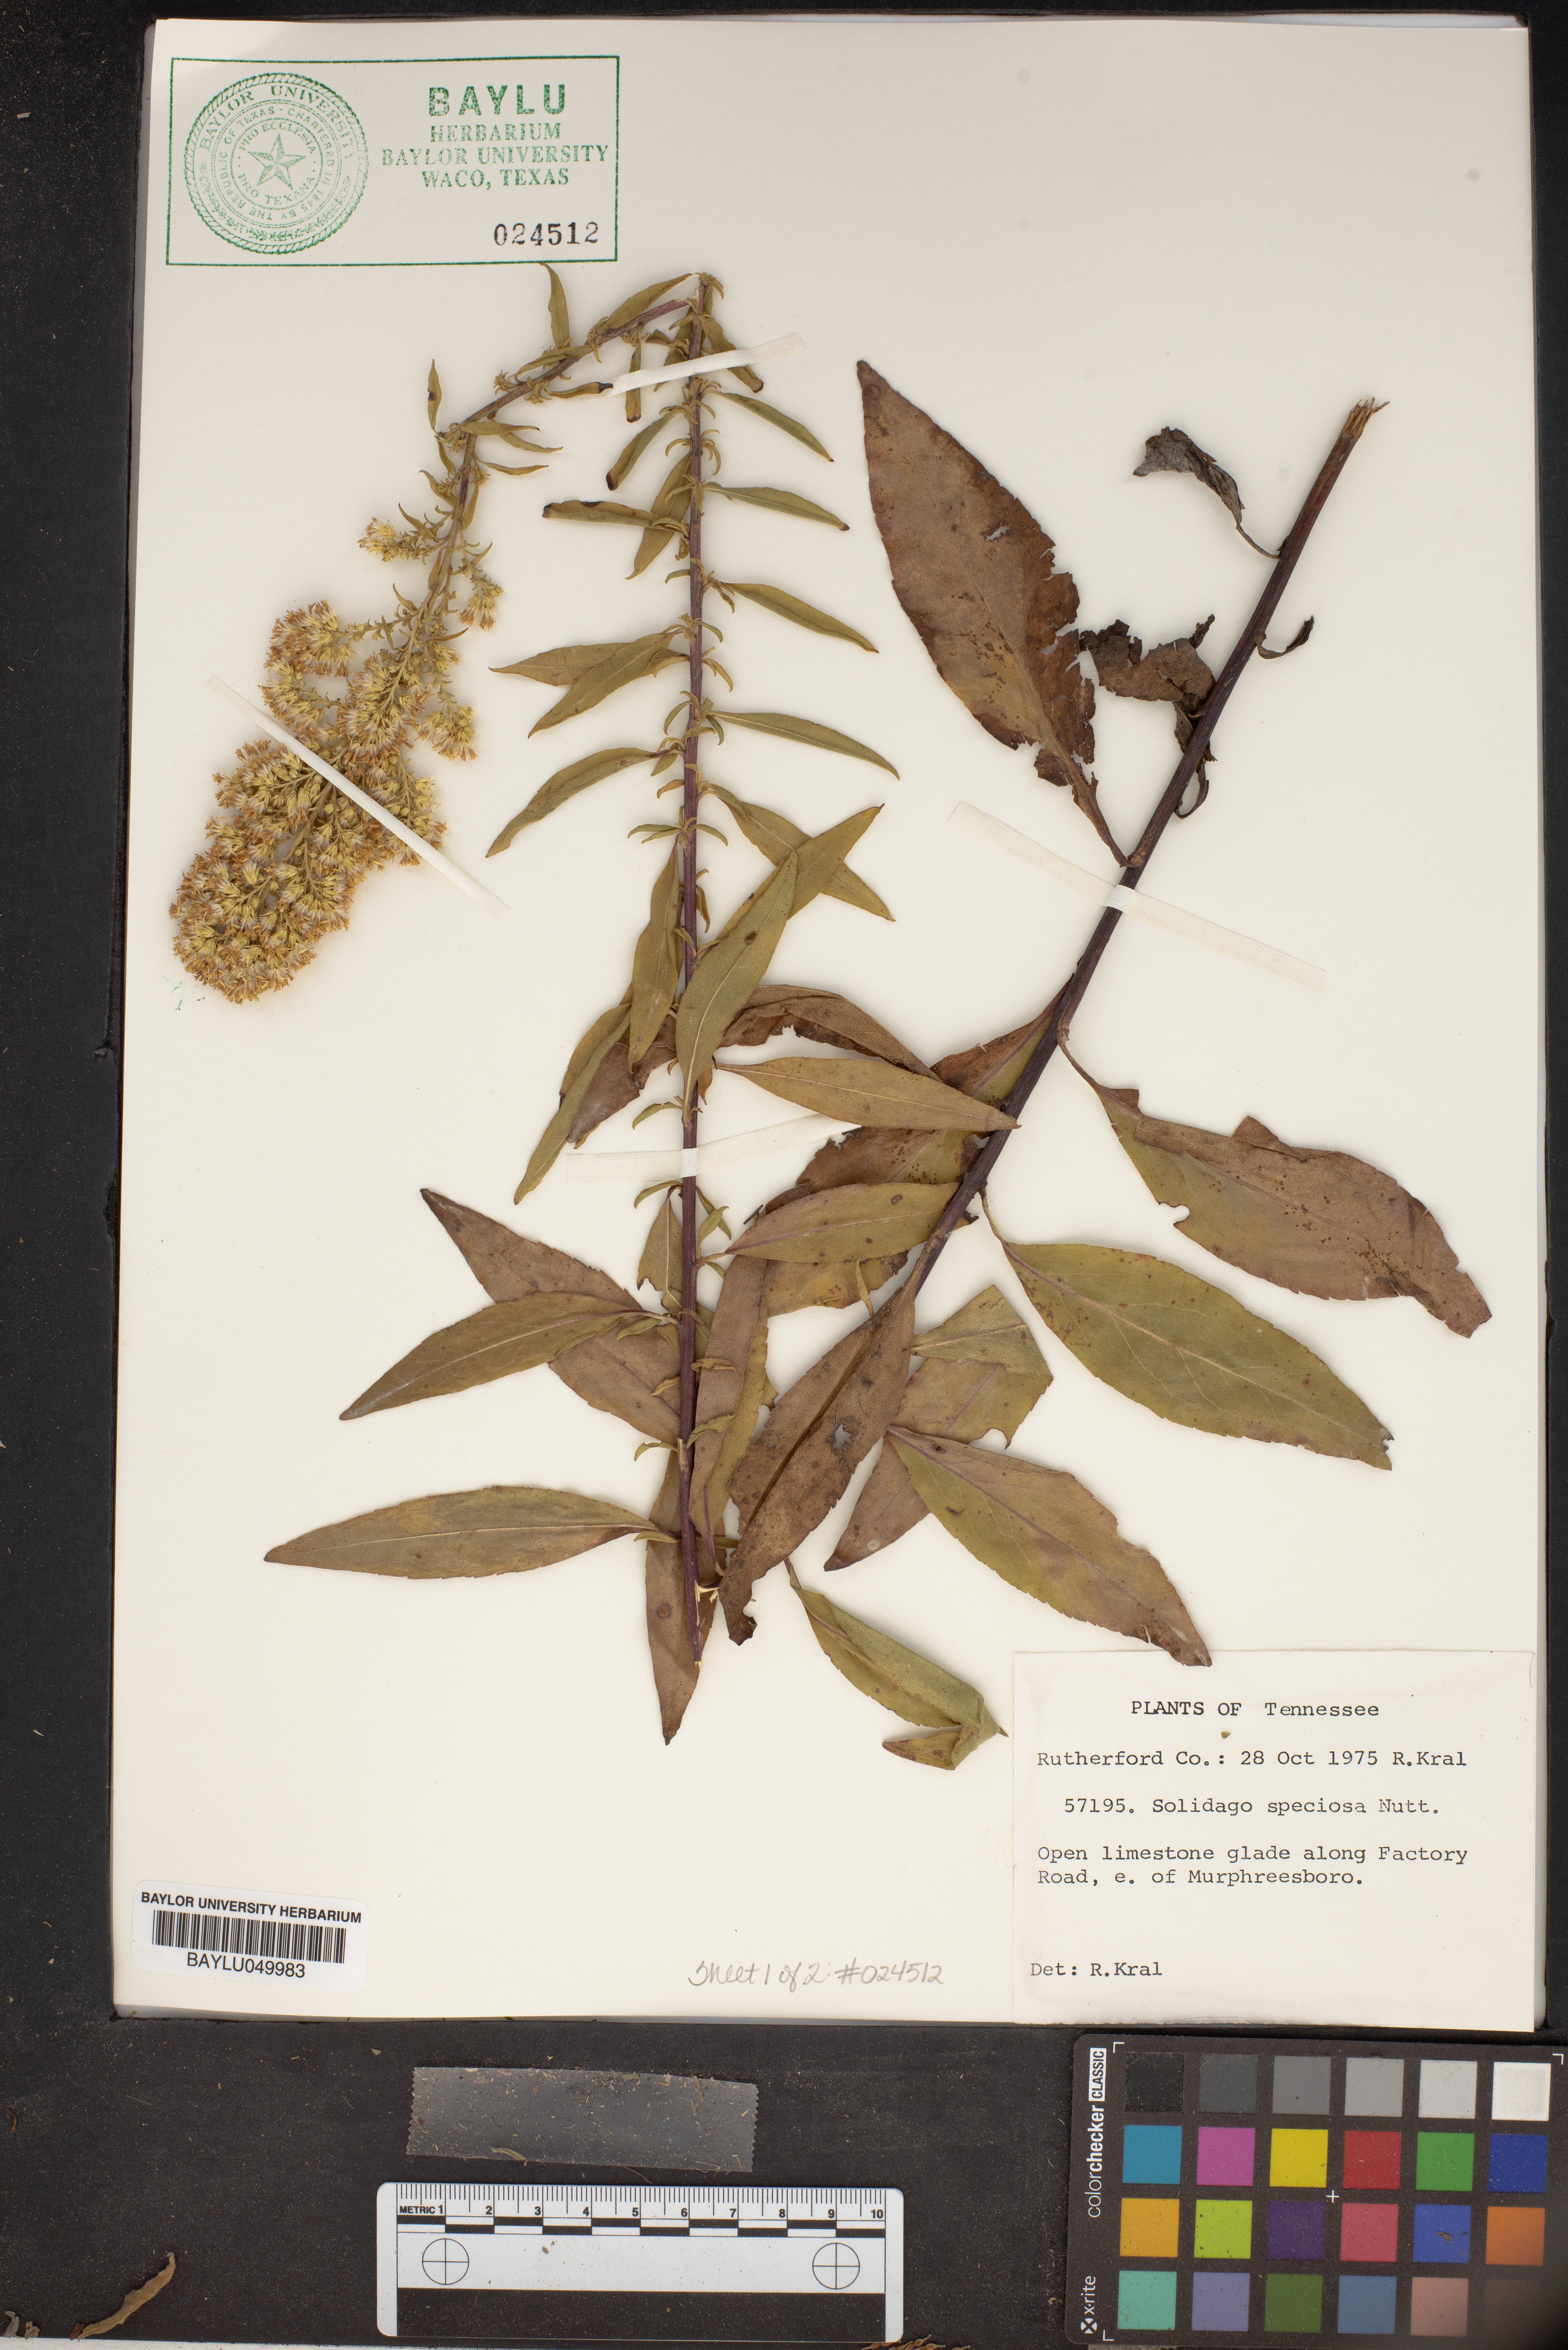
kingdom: Plantae
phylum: Tracheophyta
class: Magnoliopsida
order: Asterales
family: Asteraceae
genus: Solidago
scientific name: Solidago speciosa
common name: Showy goldenrod
